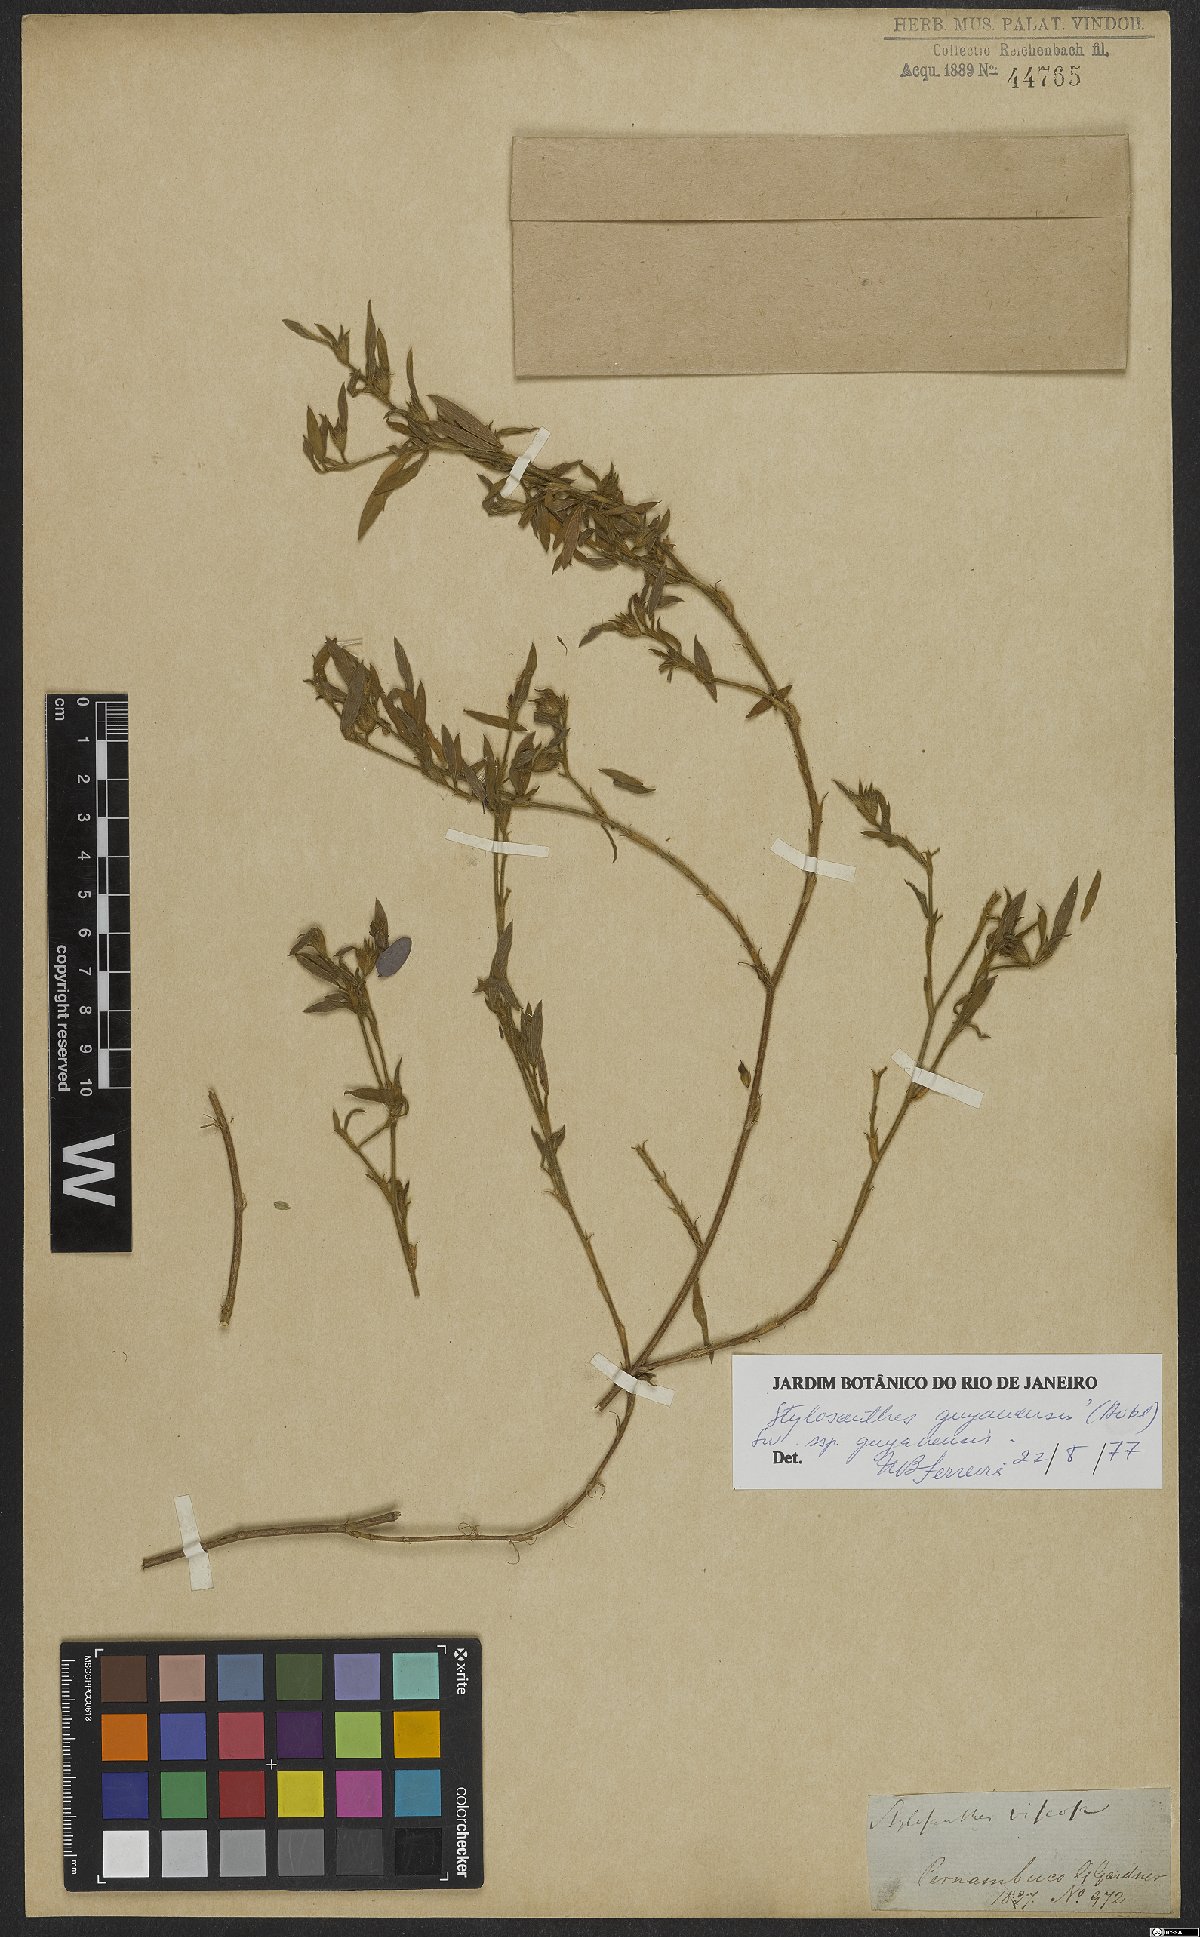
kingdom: Plantae
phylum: Tracheophyta
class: Magnoliopsida
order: Fabales
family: Fabaceae
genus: Stylosanthes
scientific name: Stylosanthes guianensis
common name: Pencil flower
